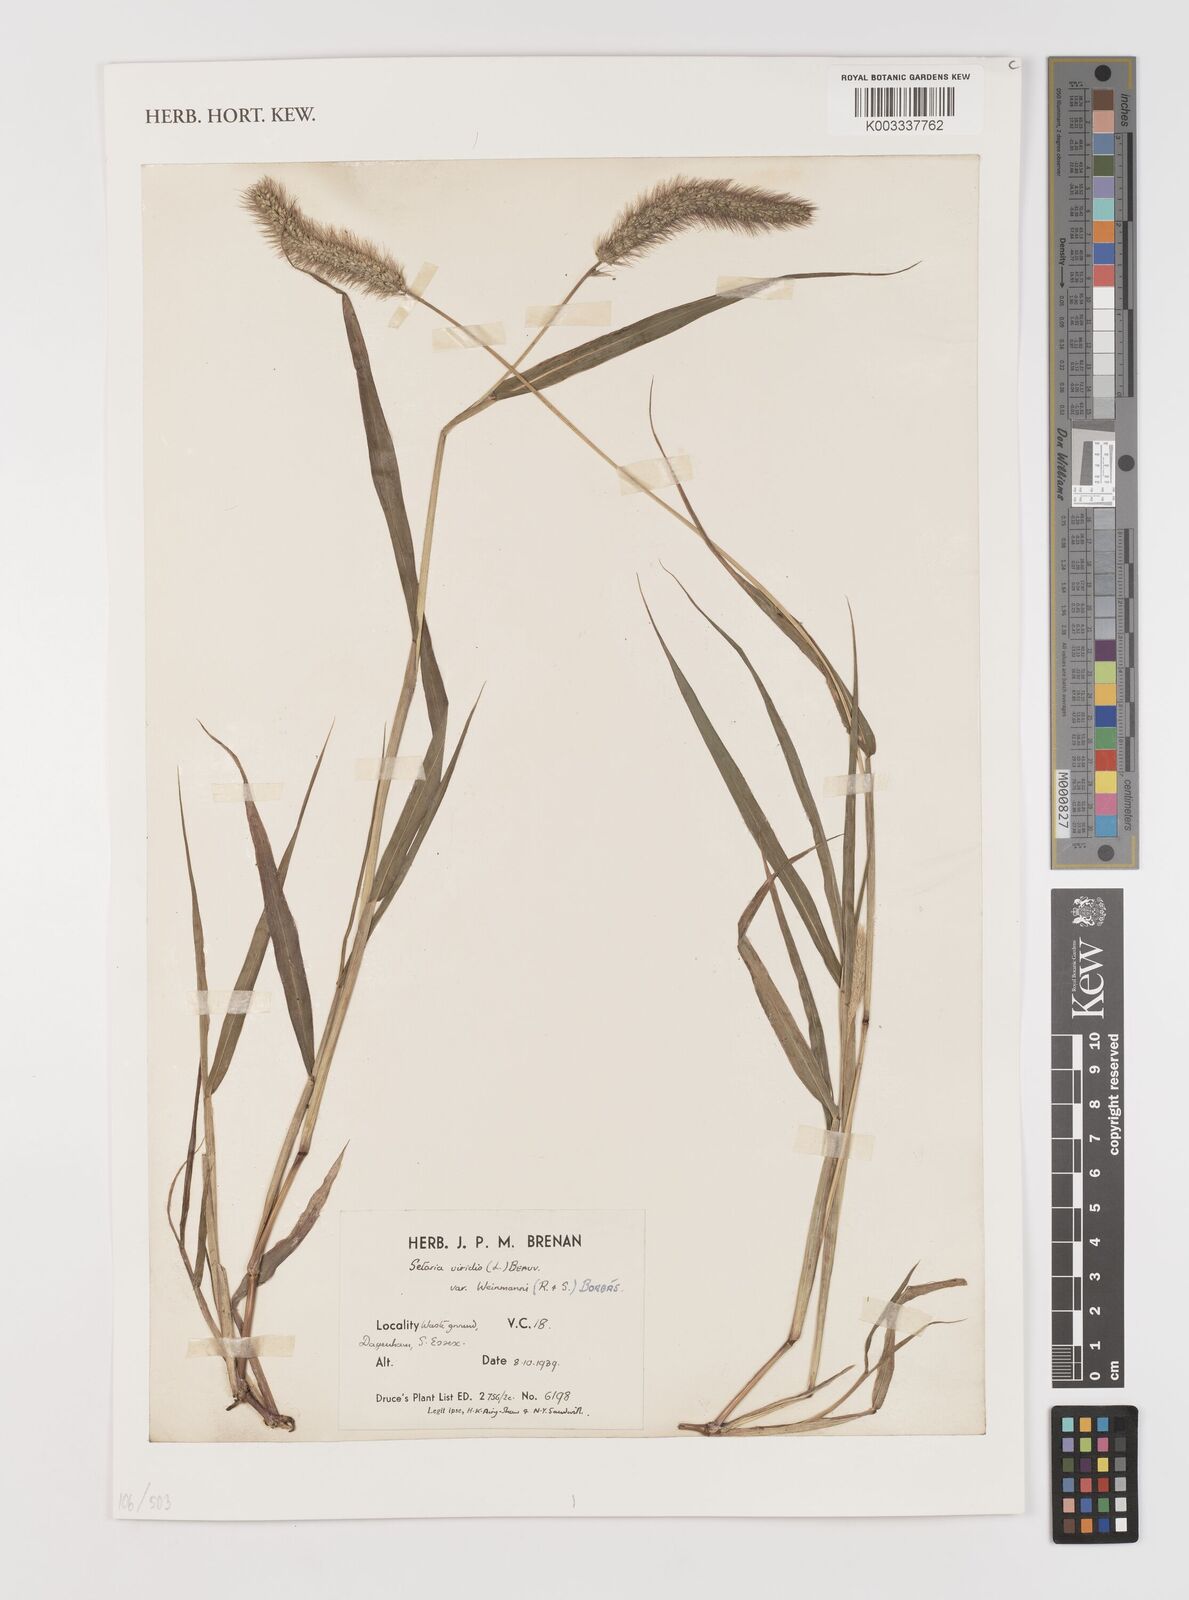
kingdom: Plantae
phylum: Tracheophyta
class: Liliopsida
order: Poales
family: Poaceae
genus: Setaria
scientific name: Setaria viridis
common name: Green bristlegrass
